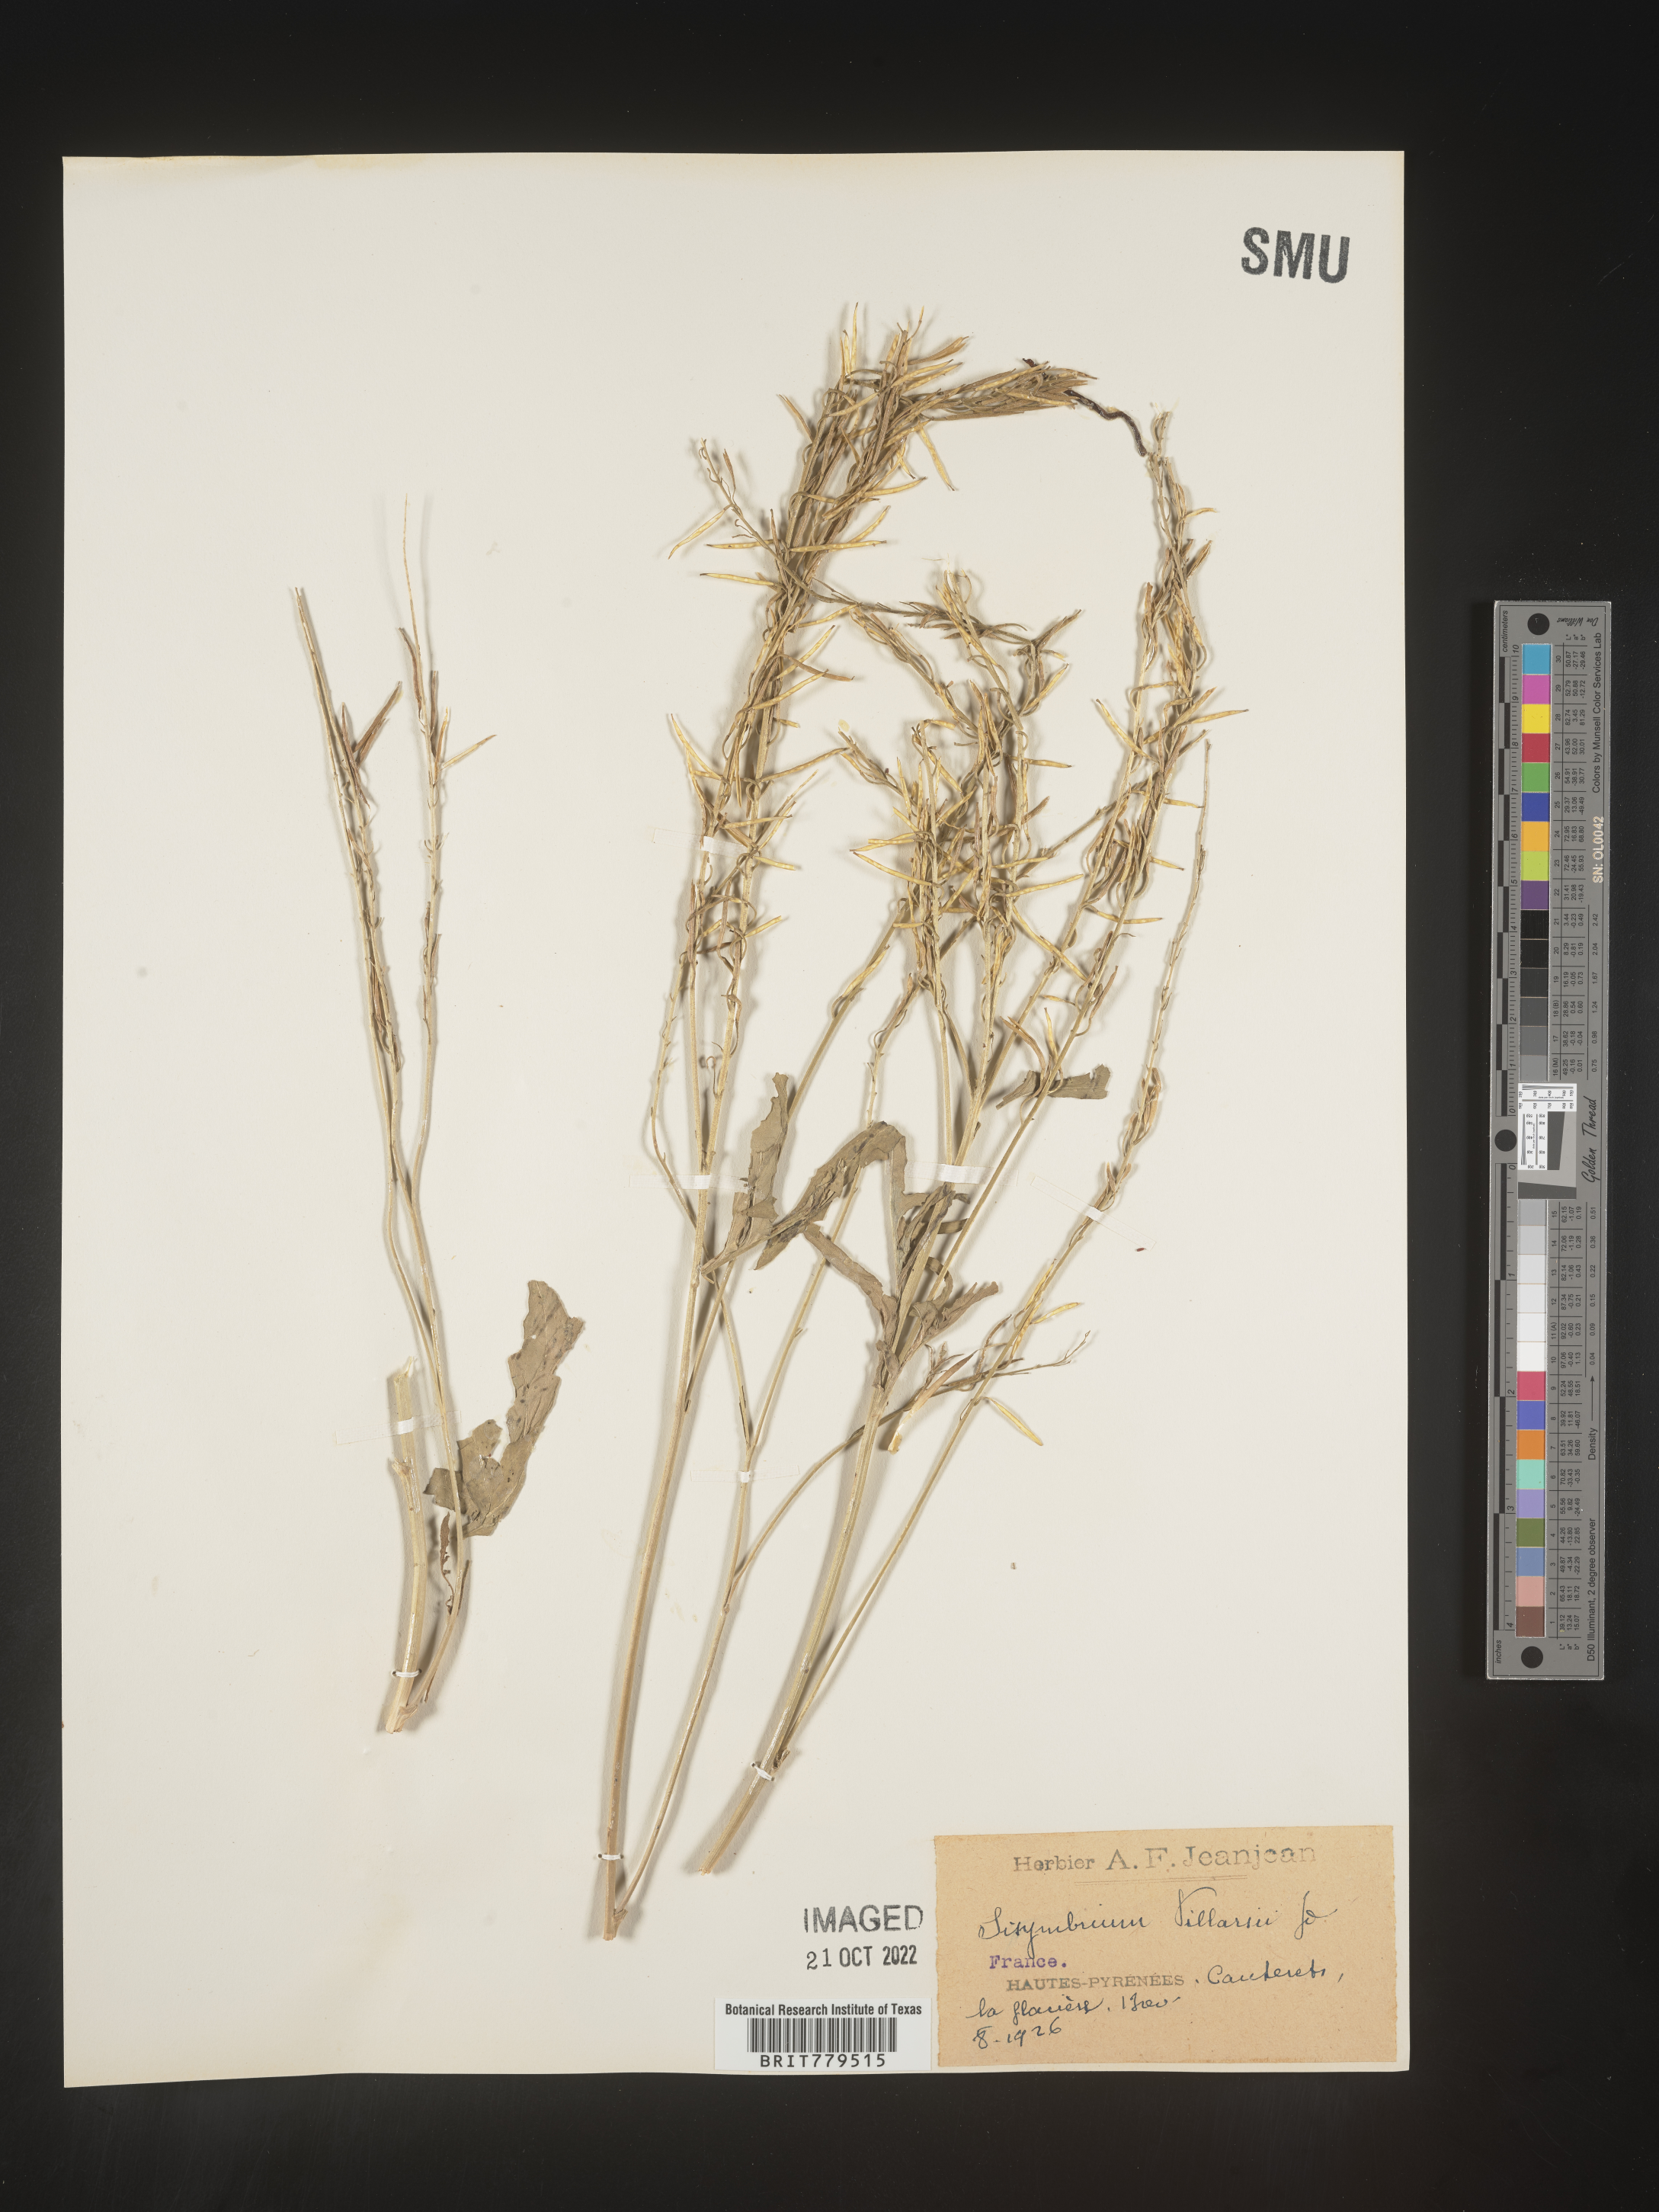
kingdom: Plantae
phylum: Tracheophyta
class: Magnoliopsida
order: Brassicales
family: Brassicaceae
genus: Sisymbrium
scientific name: Sisymbrium
